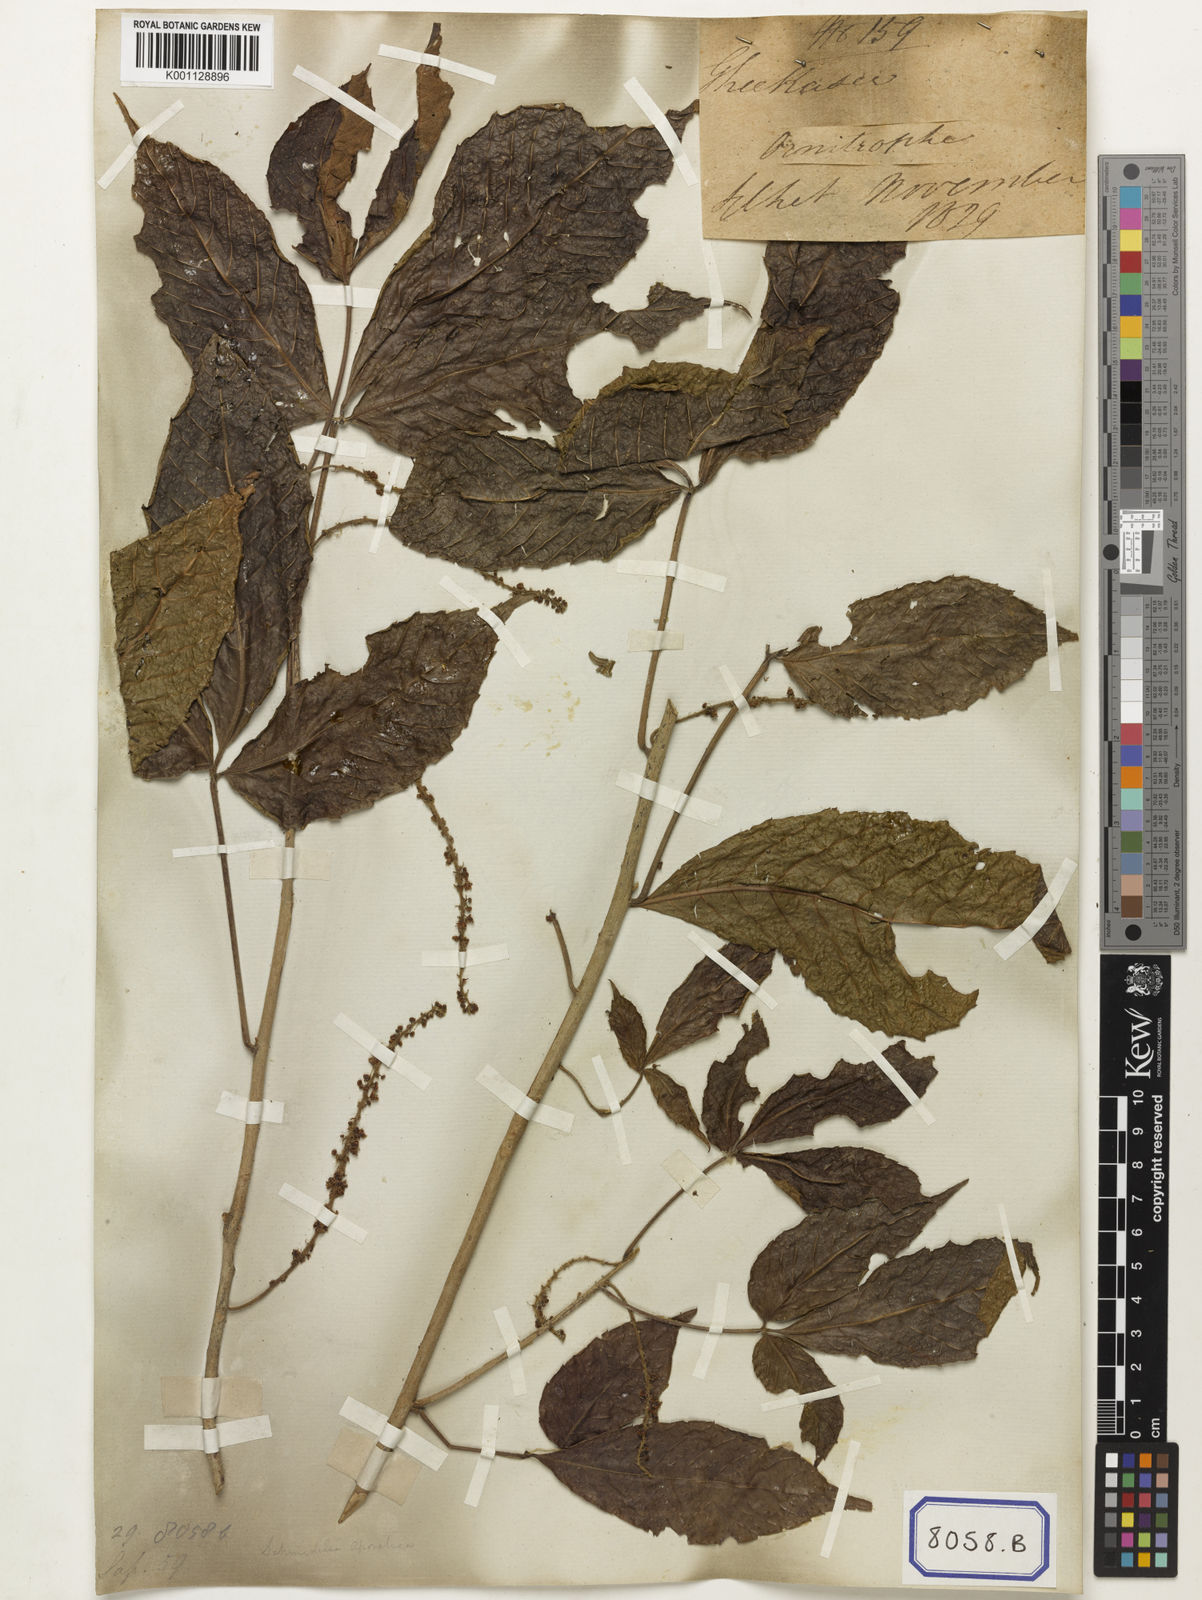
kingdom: Plantae
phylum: Tracheophyta
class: Magnoliopsida
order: Malpighiales
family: Calophyllaceae
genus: Calophyllum
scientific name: Calophyllum
